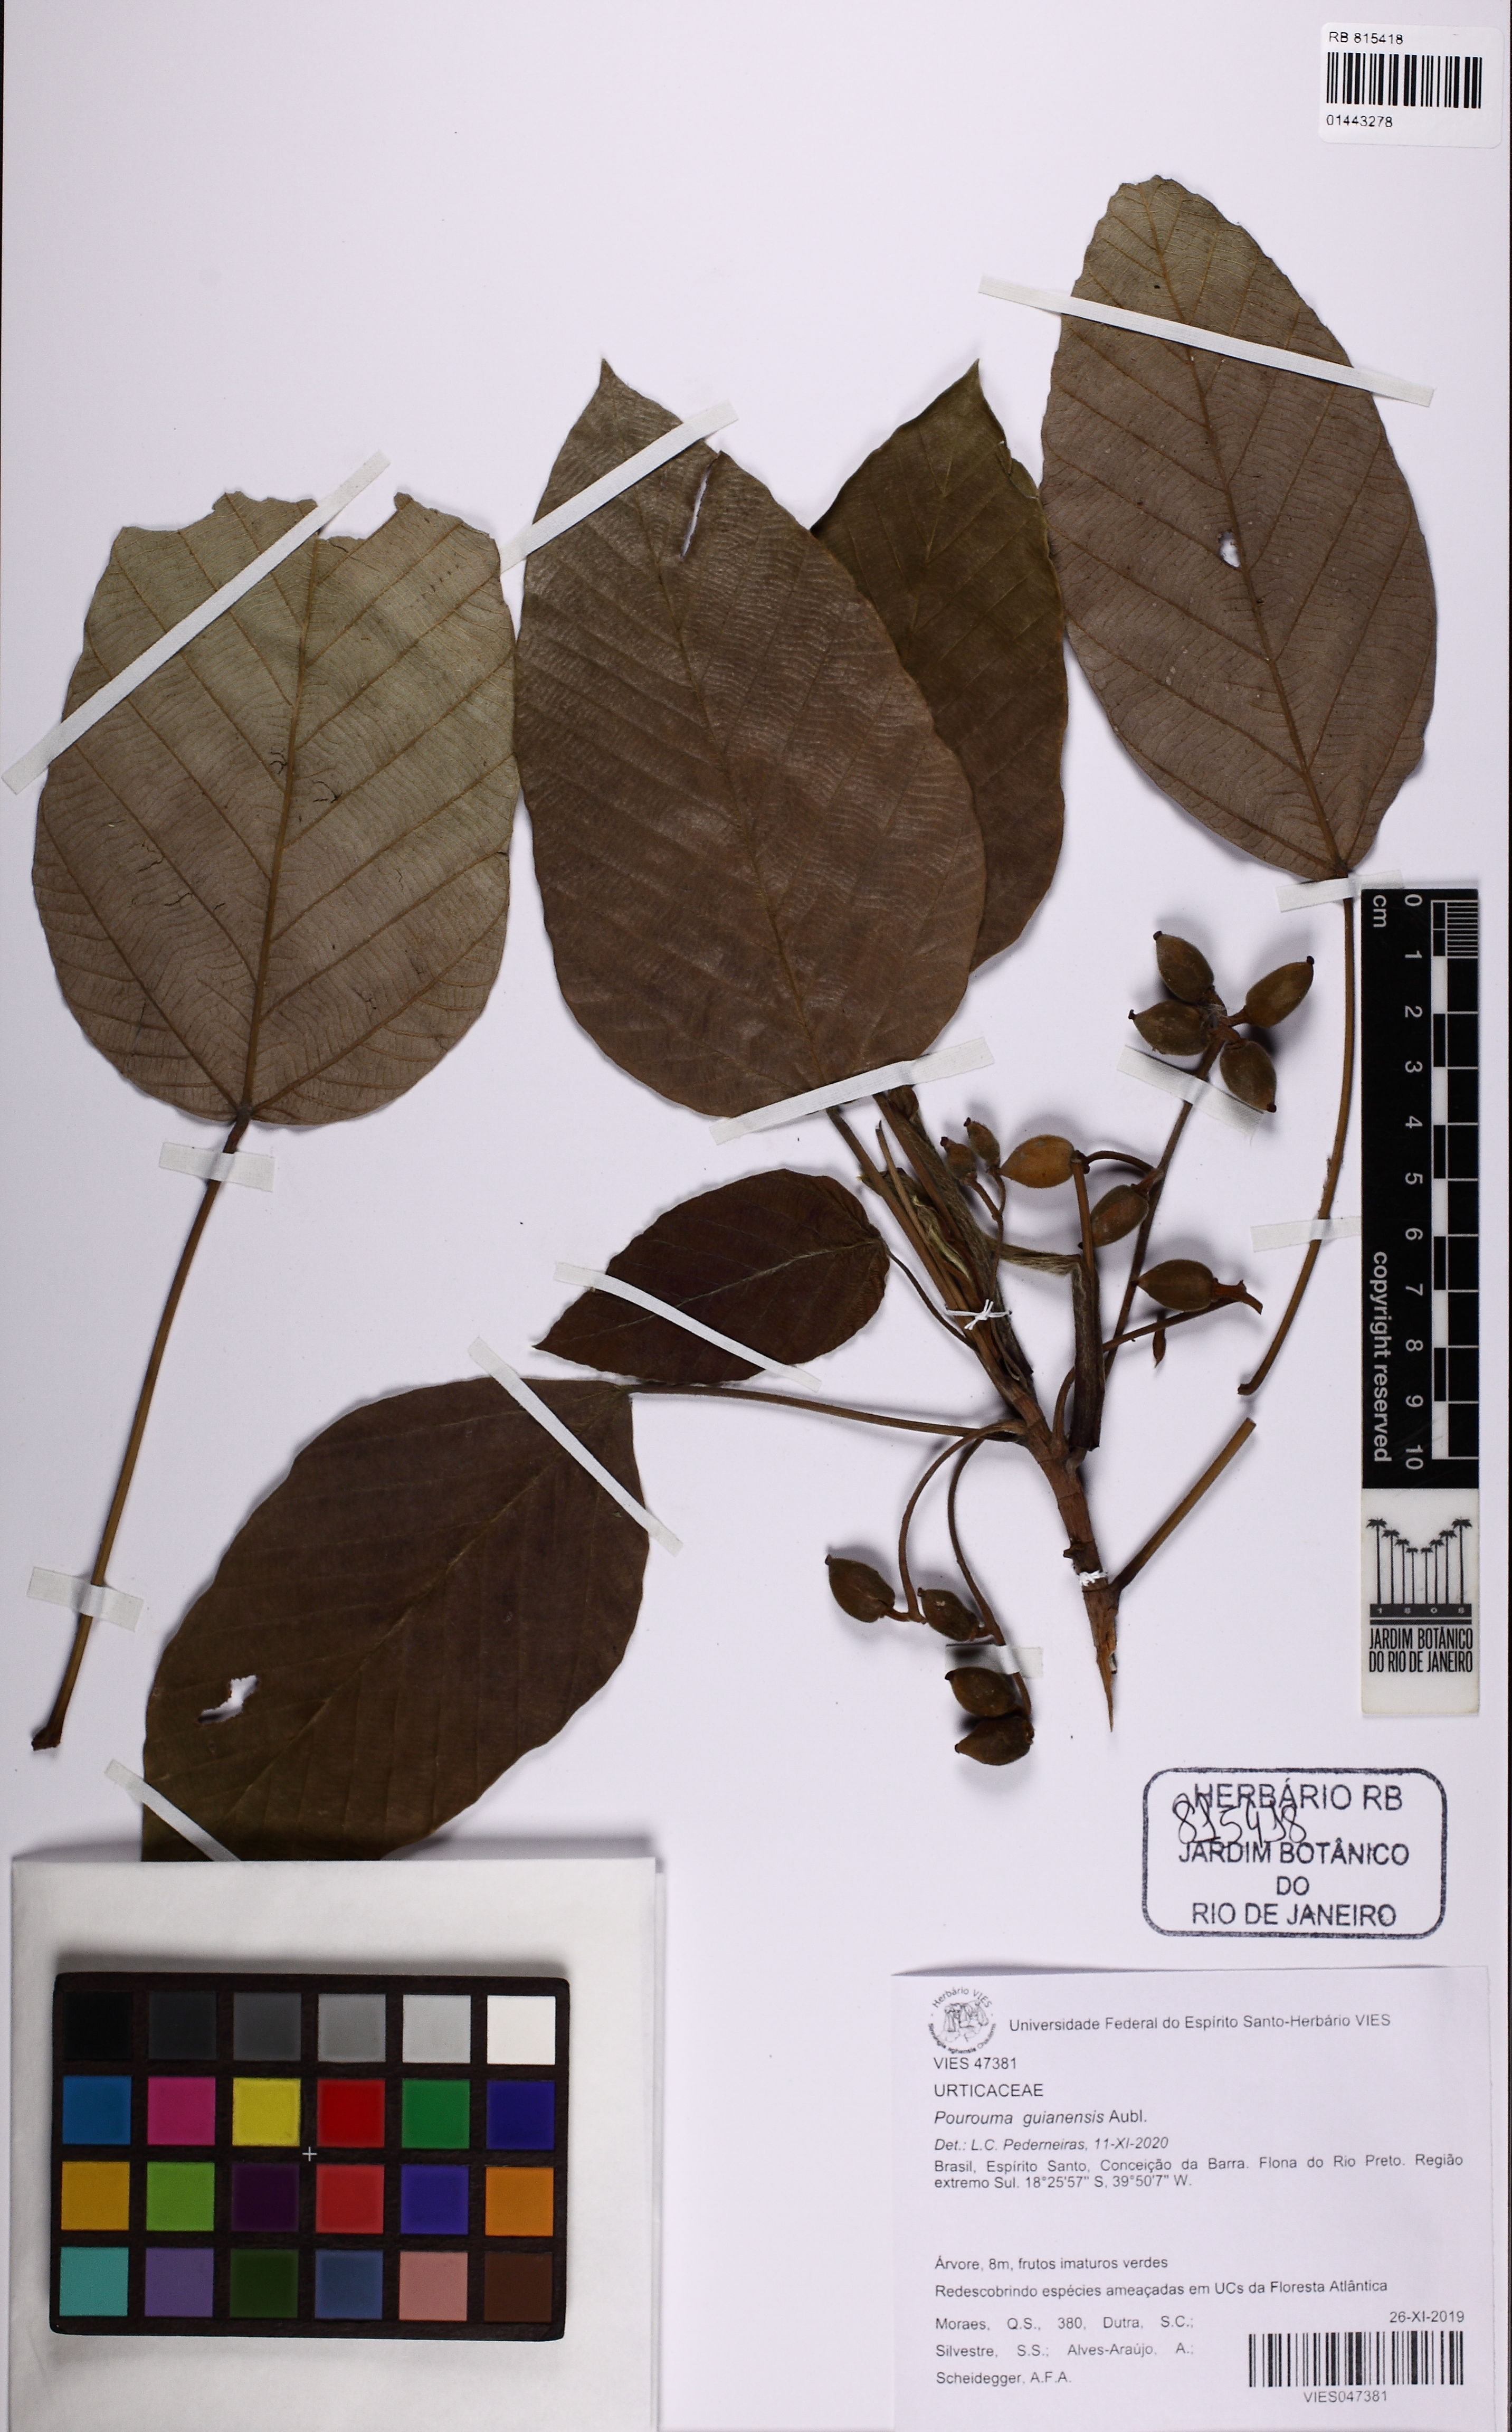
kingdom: Plantae
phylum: Tracheophyta
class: Magnoliopsida
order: Rosales
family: Urticaceae
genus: Pourouma
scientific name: Pourouma guianensis
